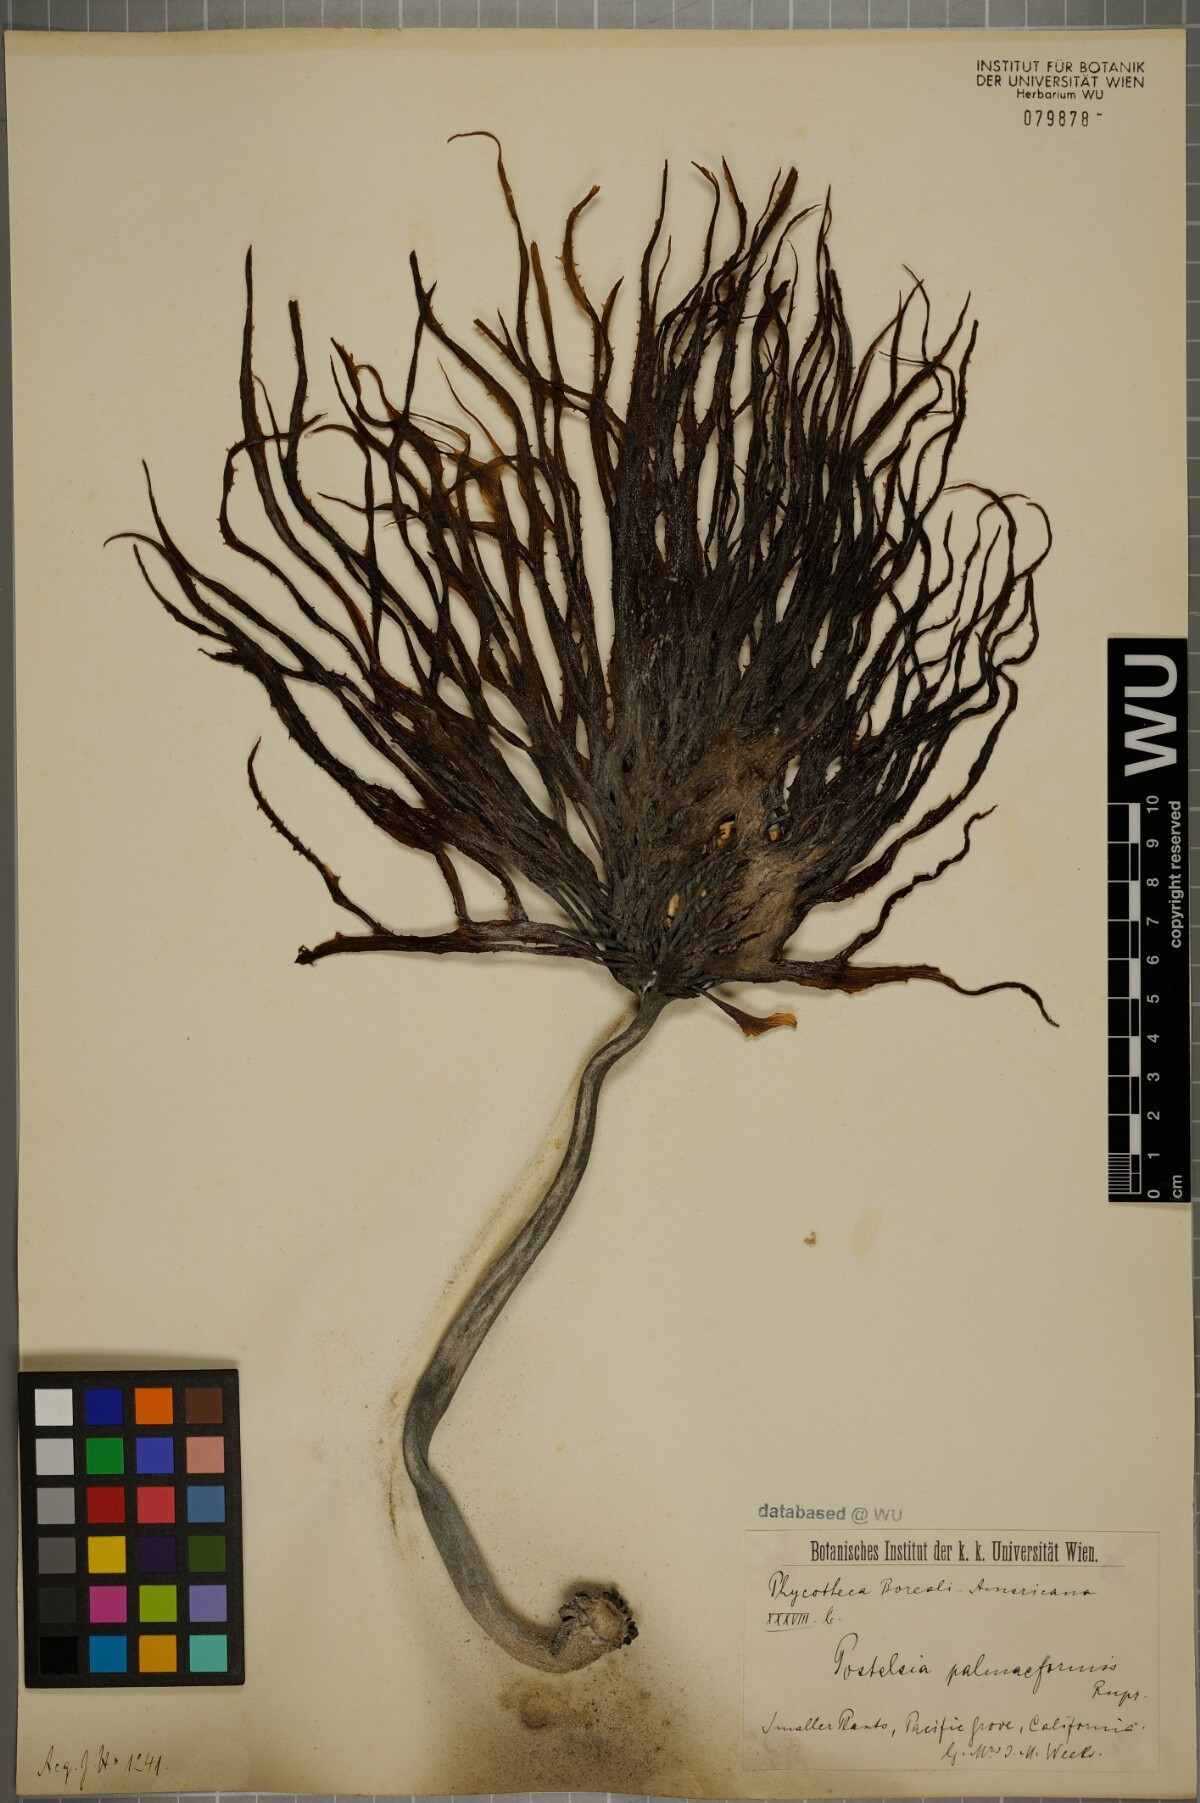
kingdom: Chromista
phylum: Ochrophyta
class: Phaeophyceae
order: Laminariales
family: Laminariaceae
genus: Postelsia
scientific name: Postelsia palmaeformis
